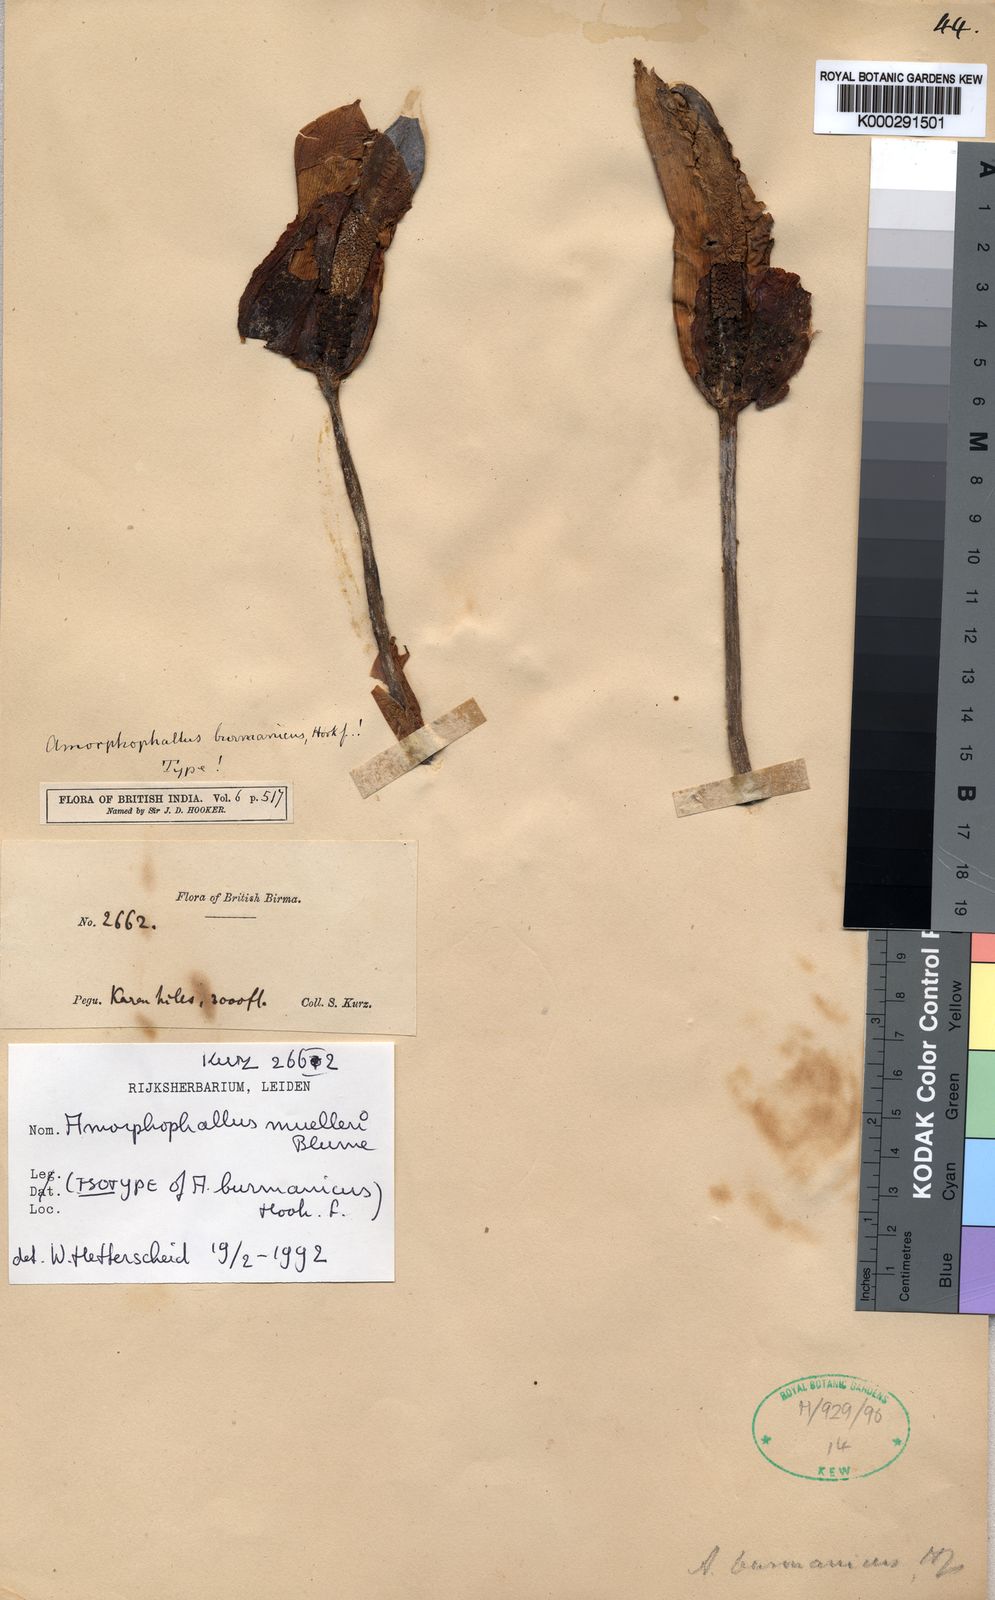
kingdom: Plantae
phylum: Tracheophyta
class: Liliopsida
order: Alismatales
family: Araceae
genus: Amorphophallus
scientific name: Amorphophallus muelleri
